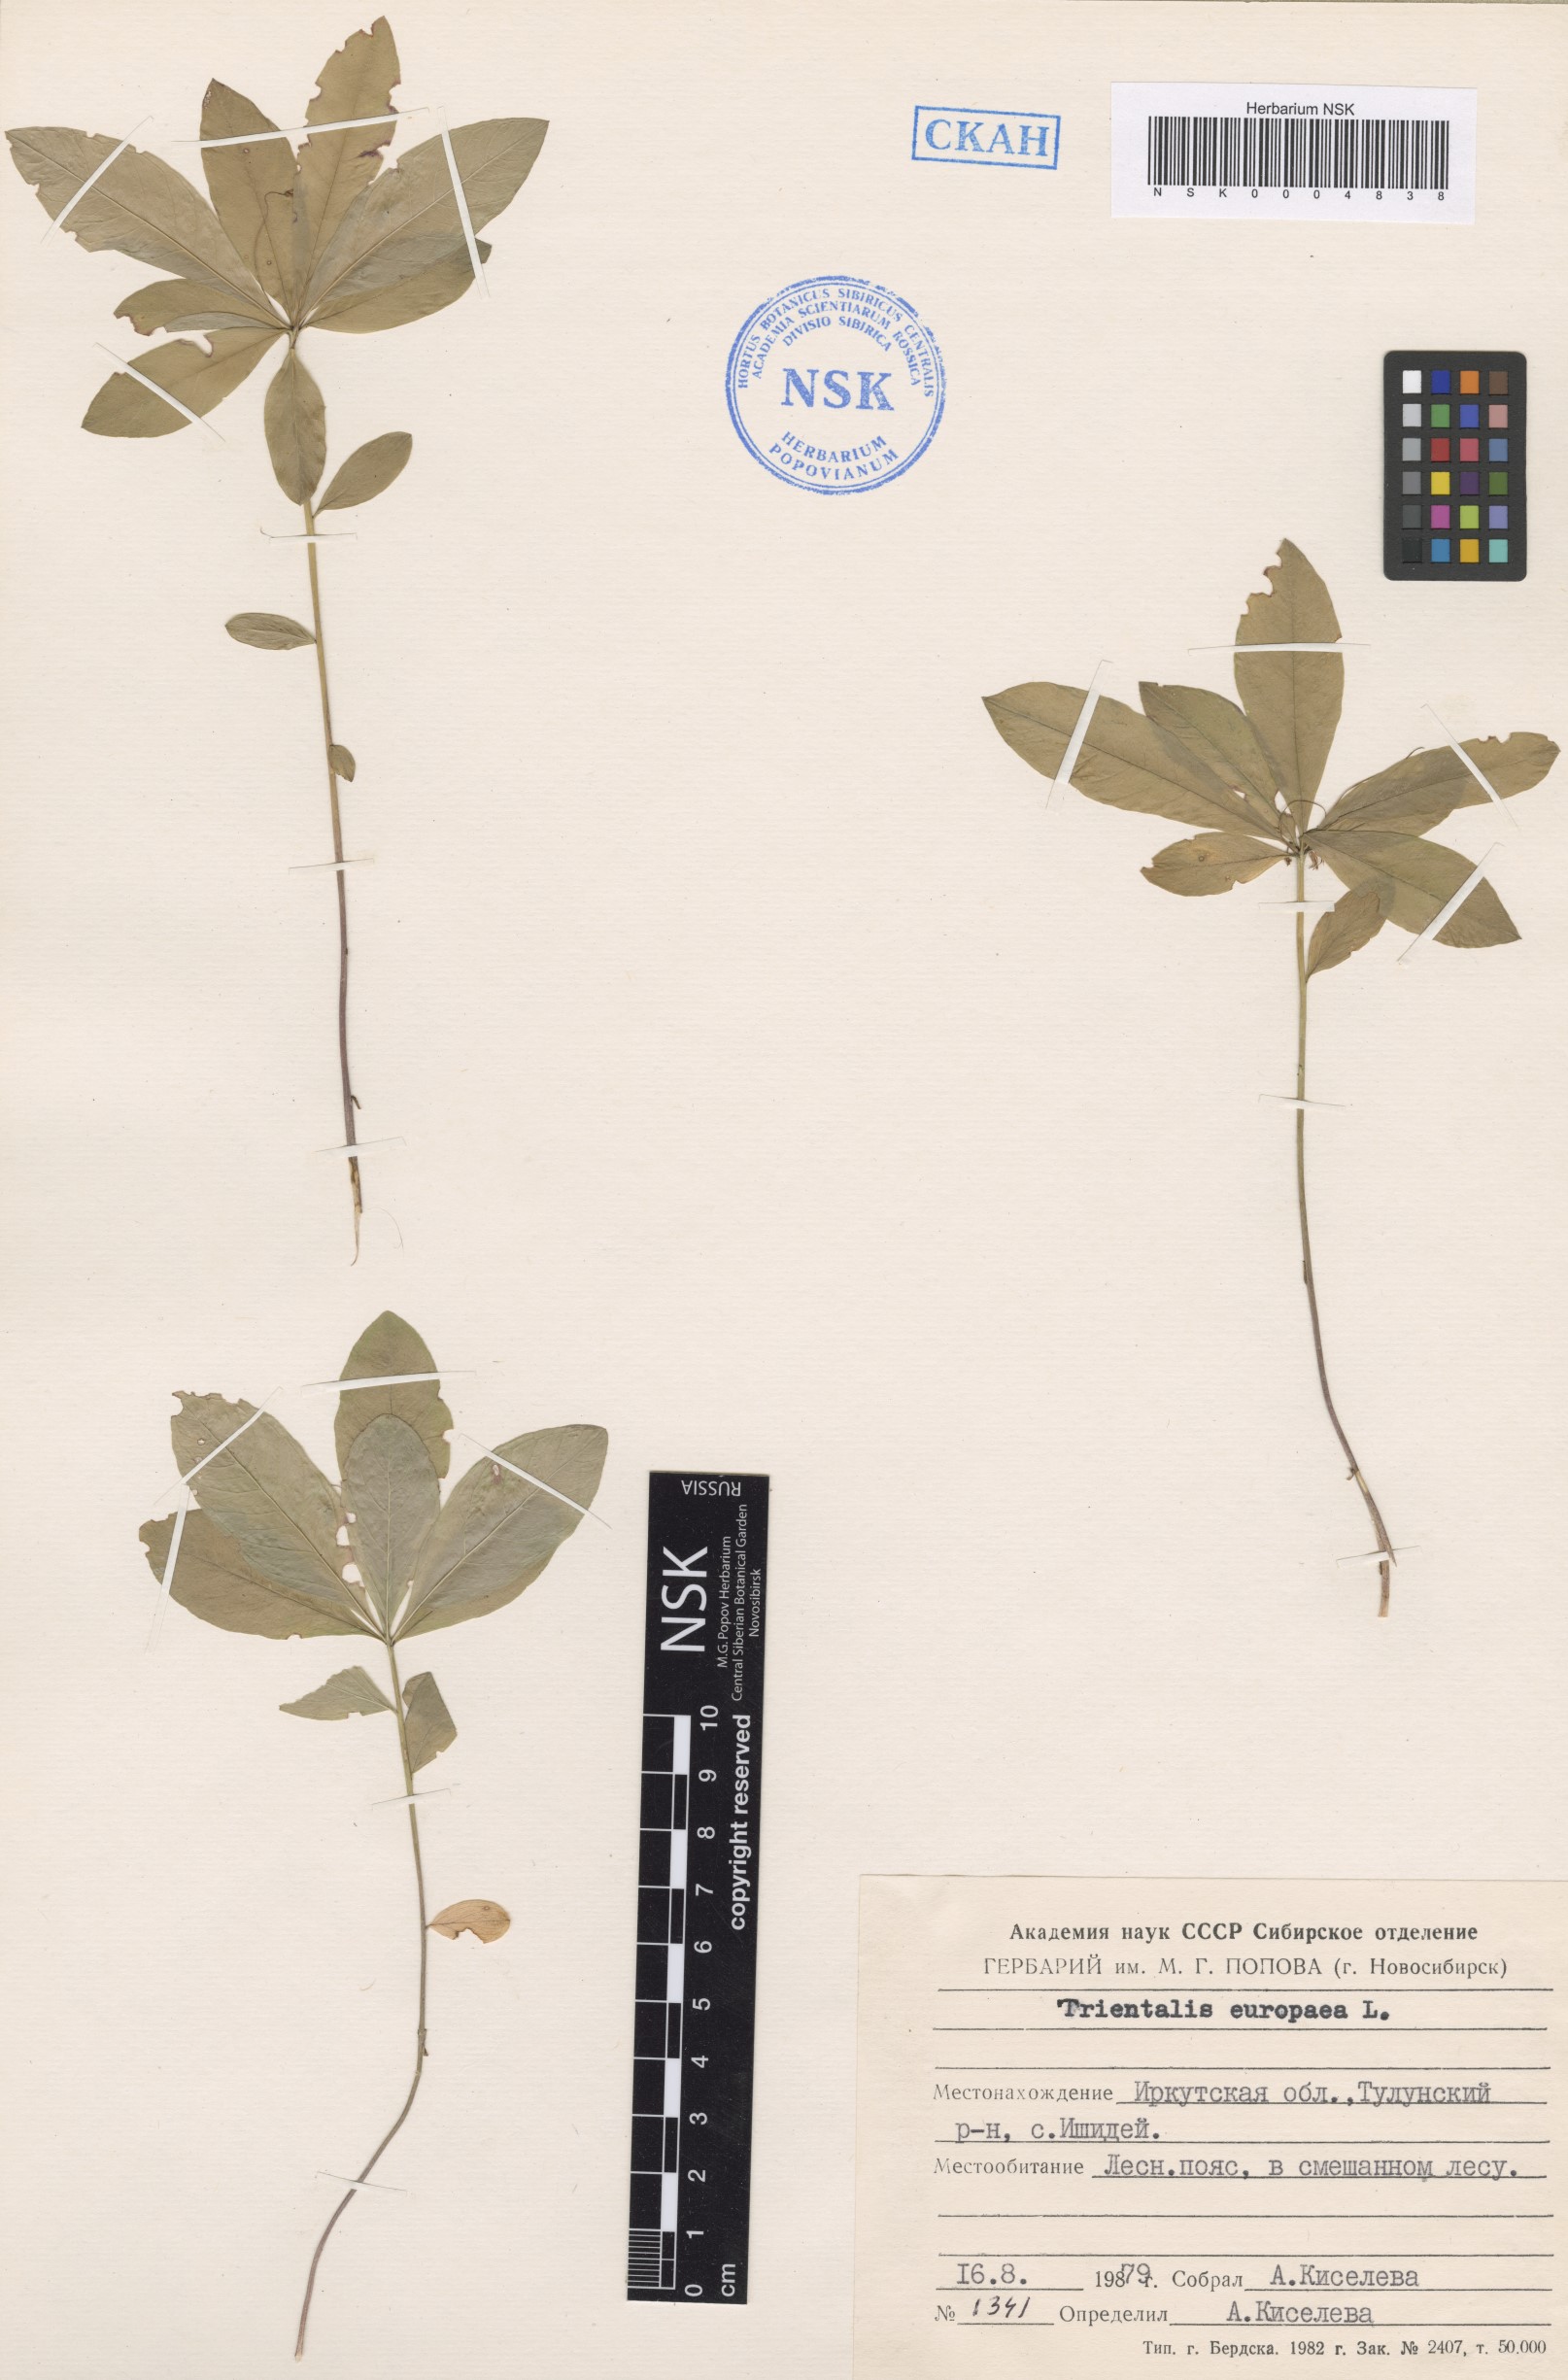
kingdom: Plantae
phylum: Tracheophyta
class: Magnoliopsida
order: Ericales
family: Primulaceae
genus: Lysimachia
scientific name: Lysimachia europaea
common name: Arctic starflower
